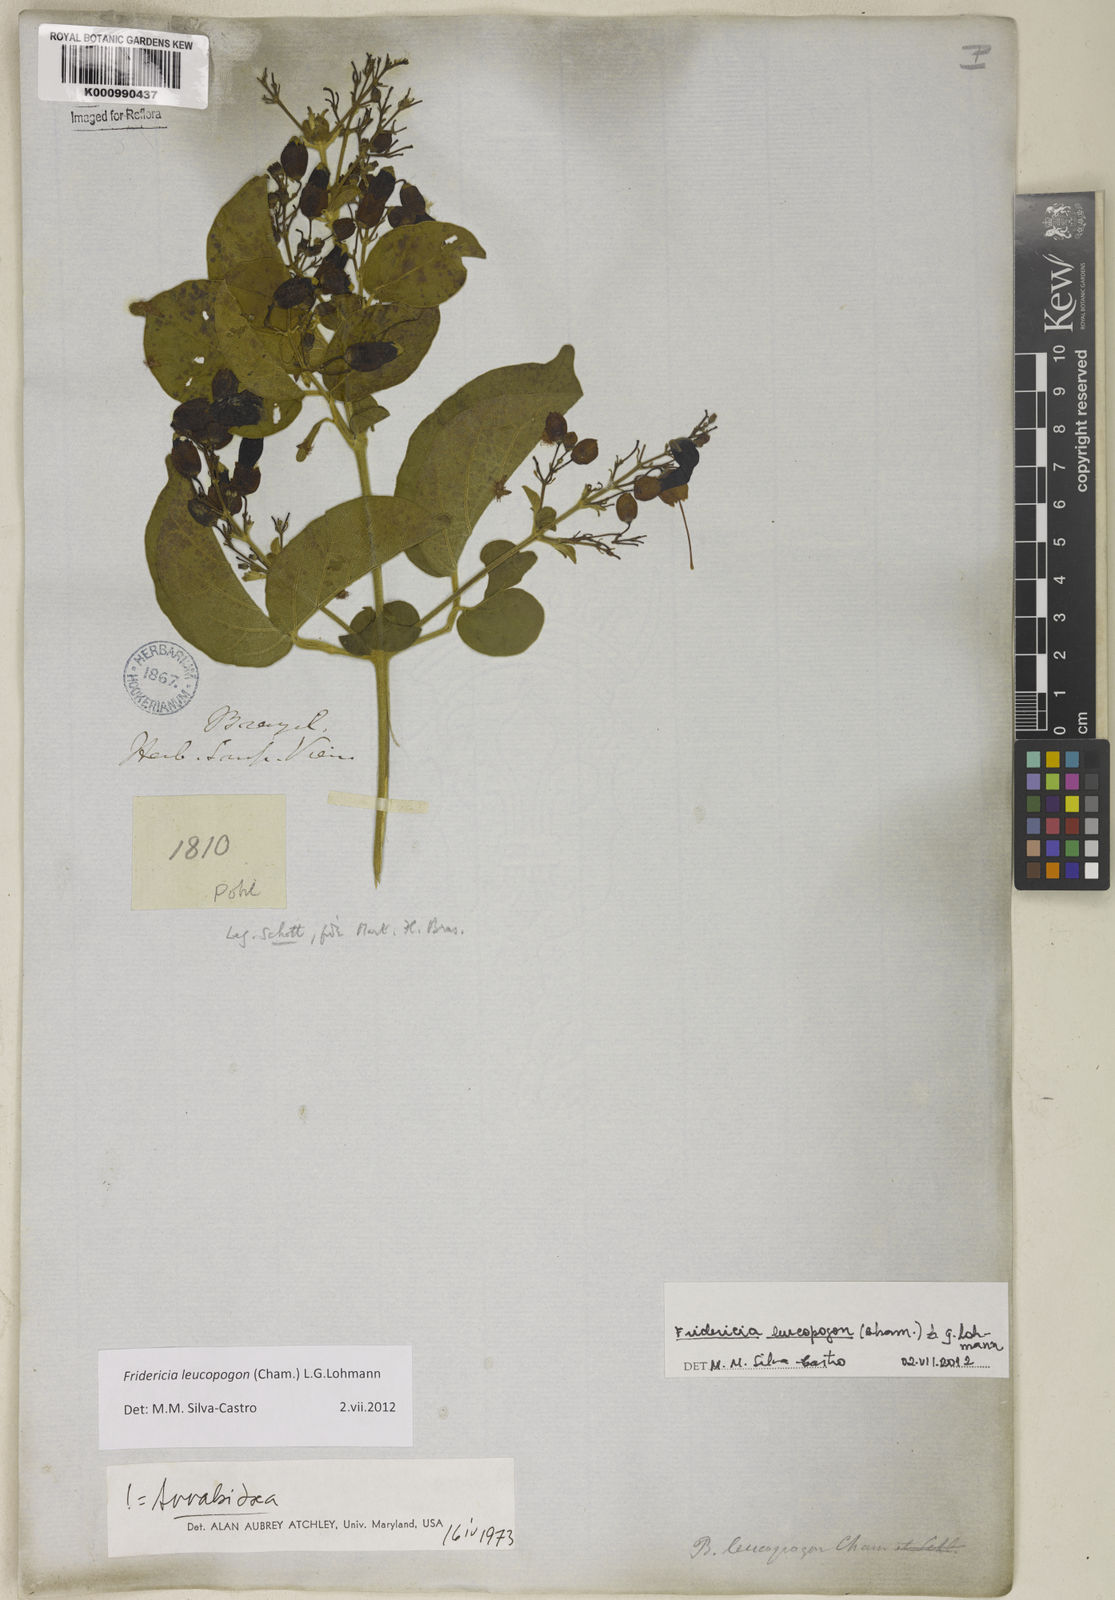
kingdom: Plantae
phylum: Tracheophyta
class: Magnoliopsida
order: Lamiales
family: Bignoniaceae
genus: Fridericia
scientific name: Fridericia leucopogon
